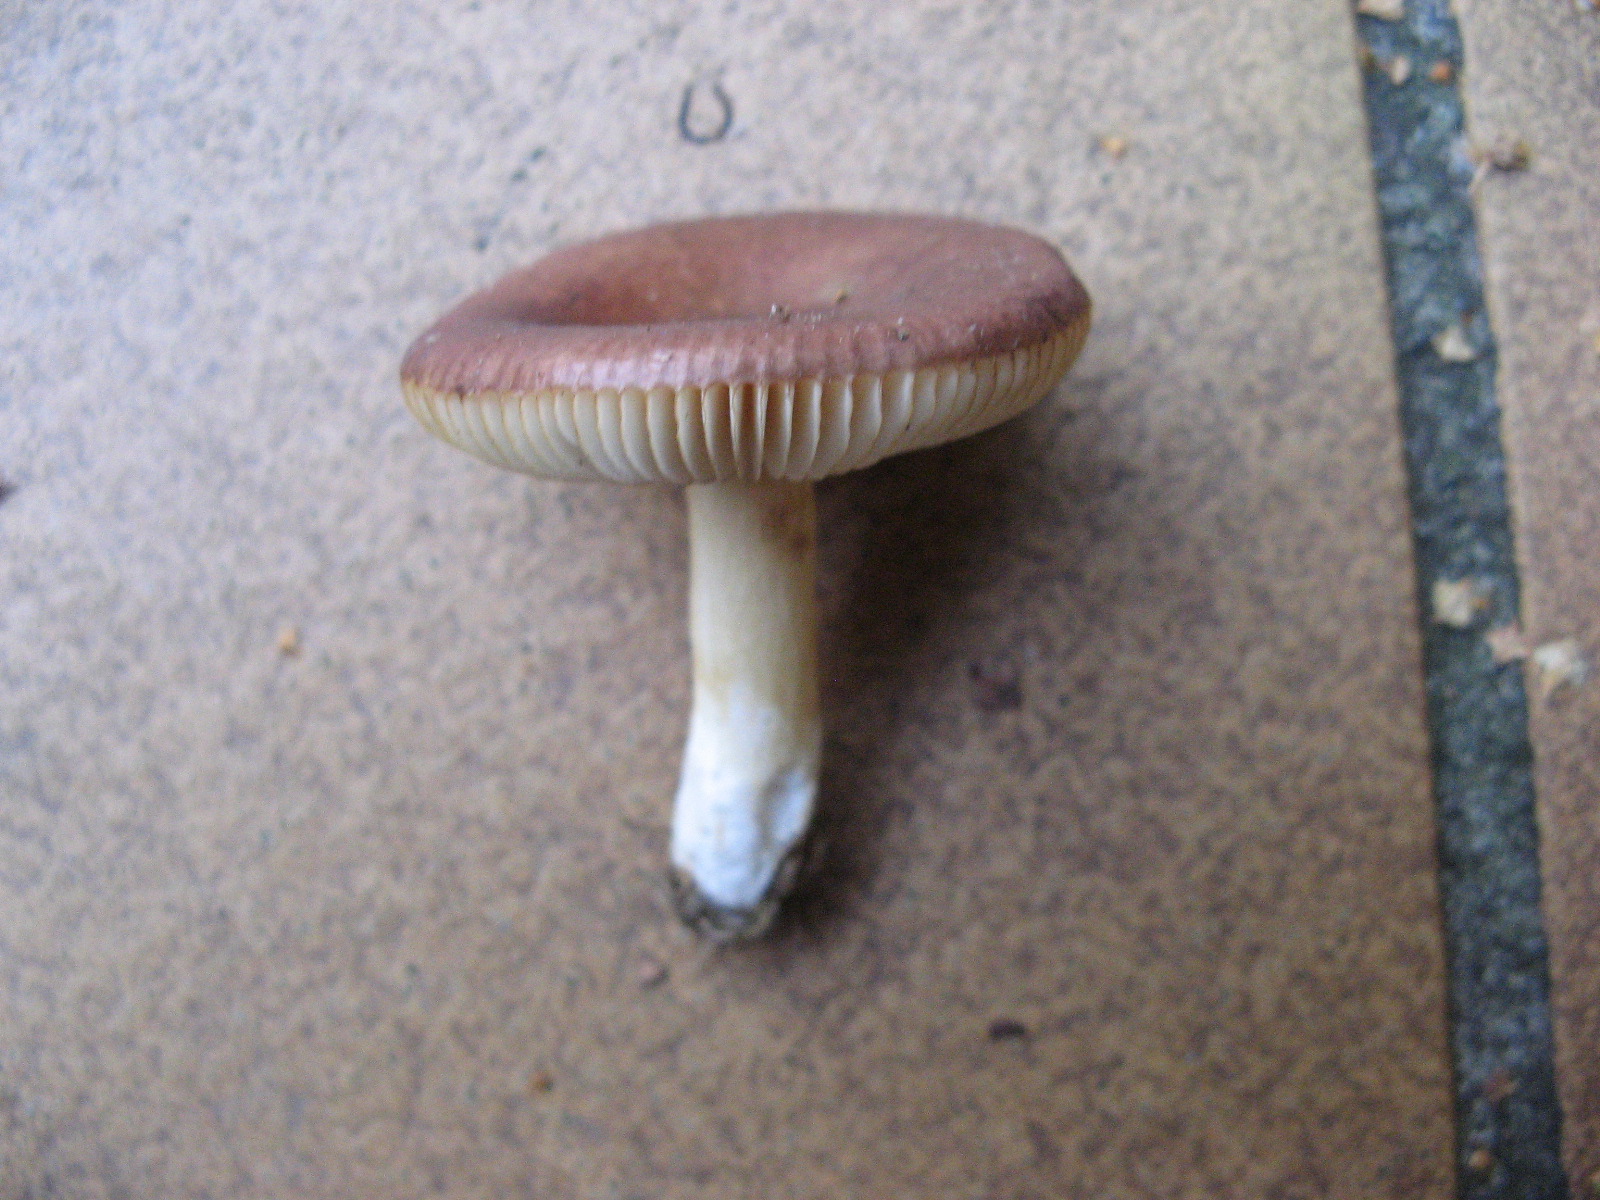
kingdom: Fungi
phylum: Basidiomycota
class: Agaricomycetes
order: Russulales
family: Russulaceae
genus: Russula
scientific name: Russula
